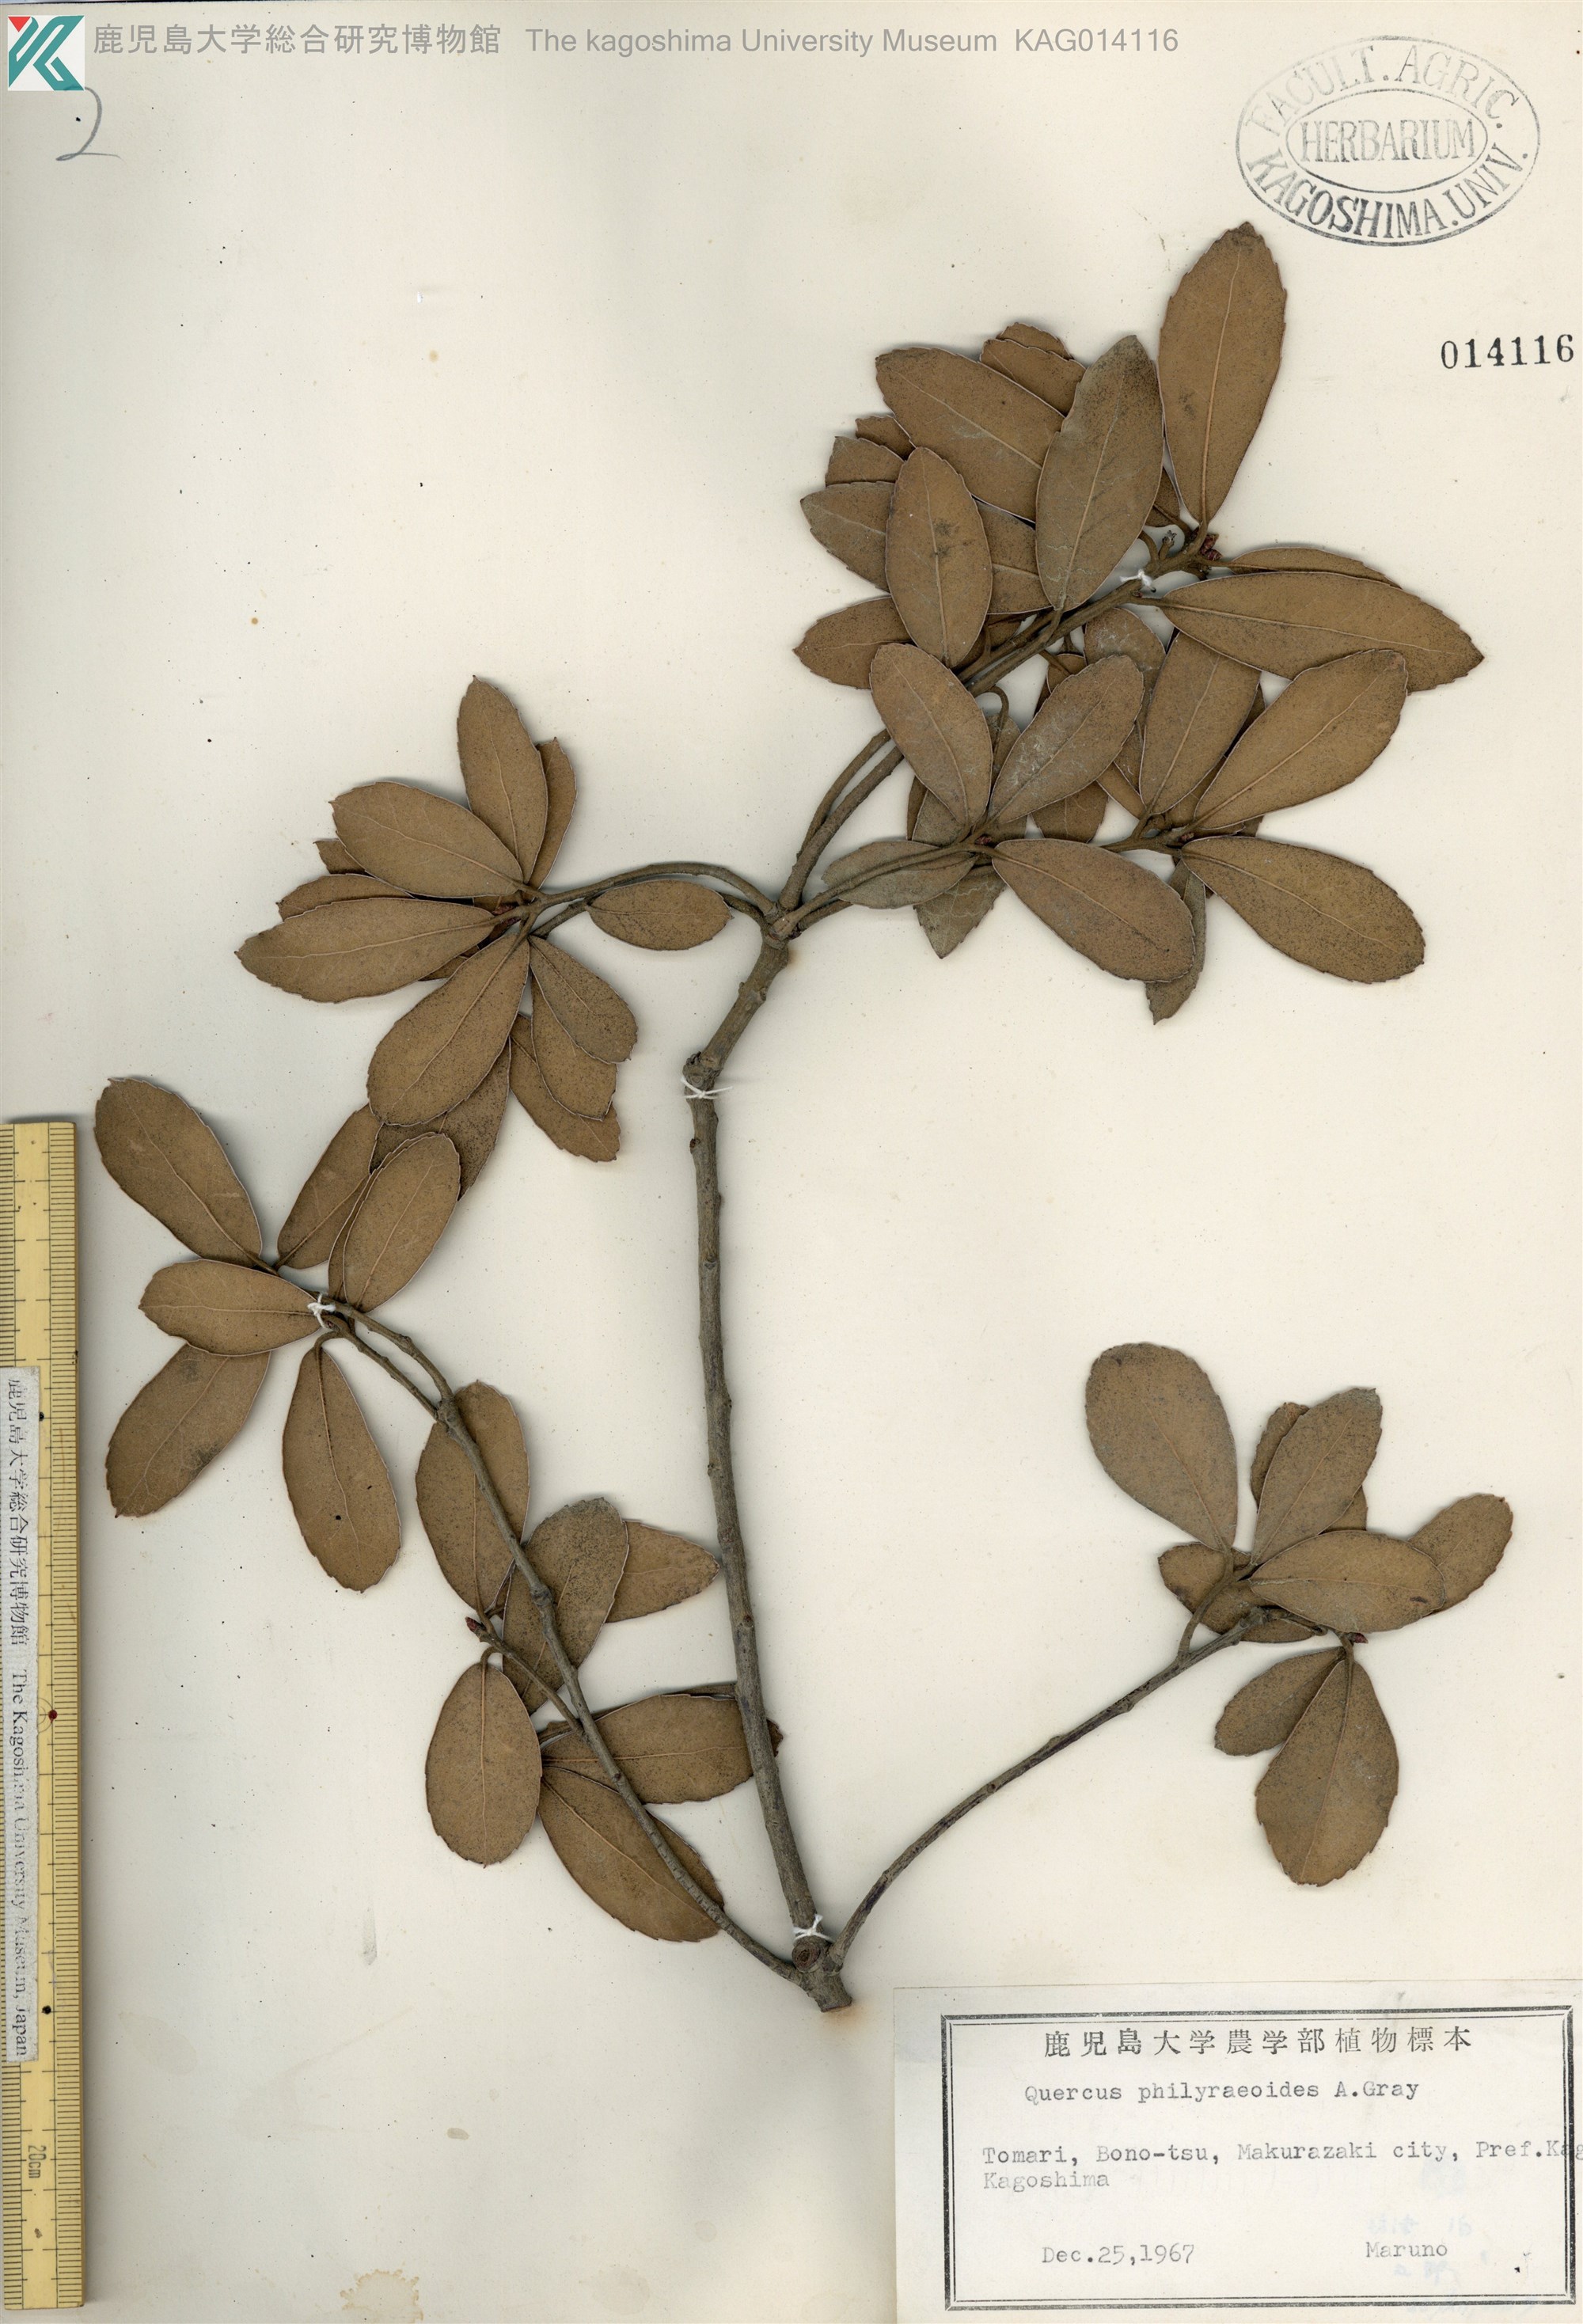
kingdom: Plantae
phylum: Tracheophyta
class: Magnoliopsida
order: Fagales
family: Fagaceae
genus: Quercus
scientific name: Quercus phillyreoides
